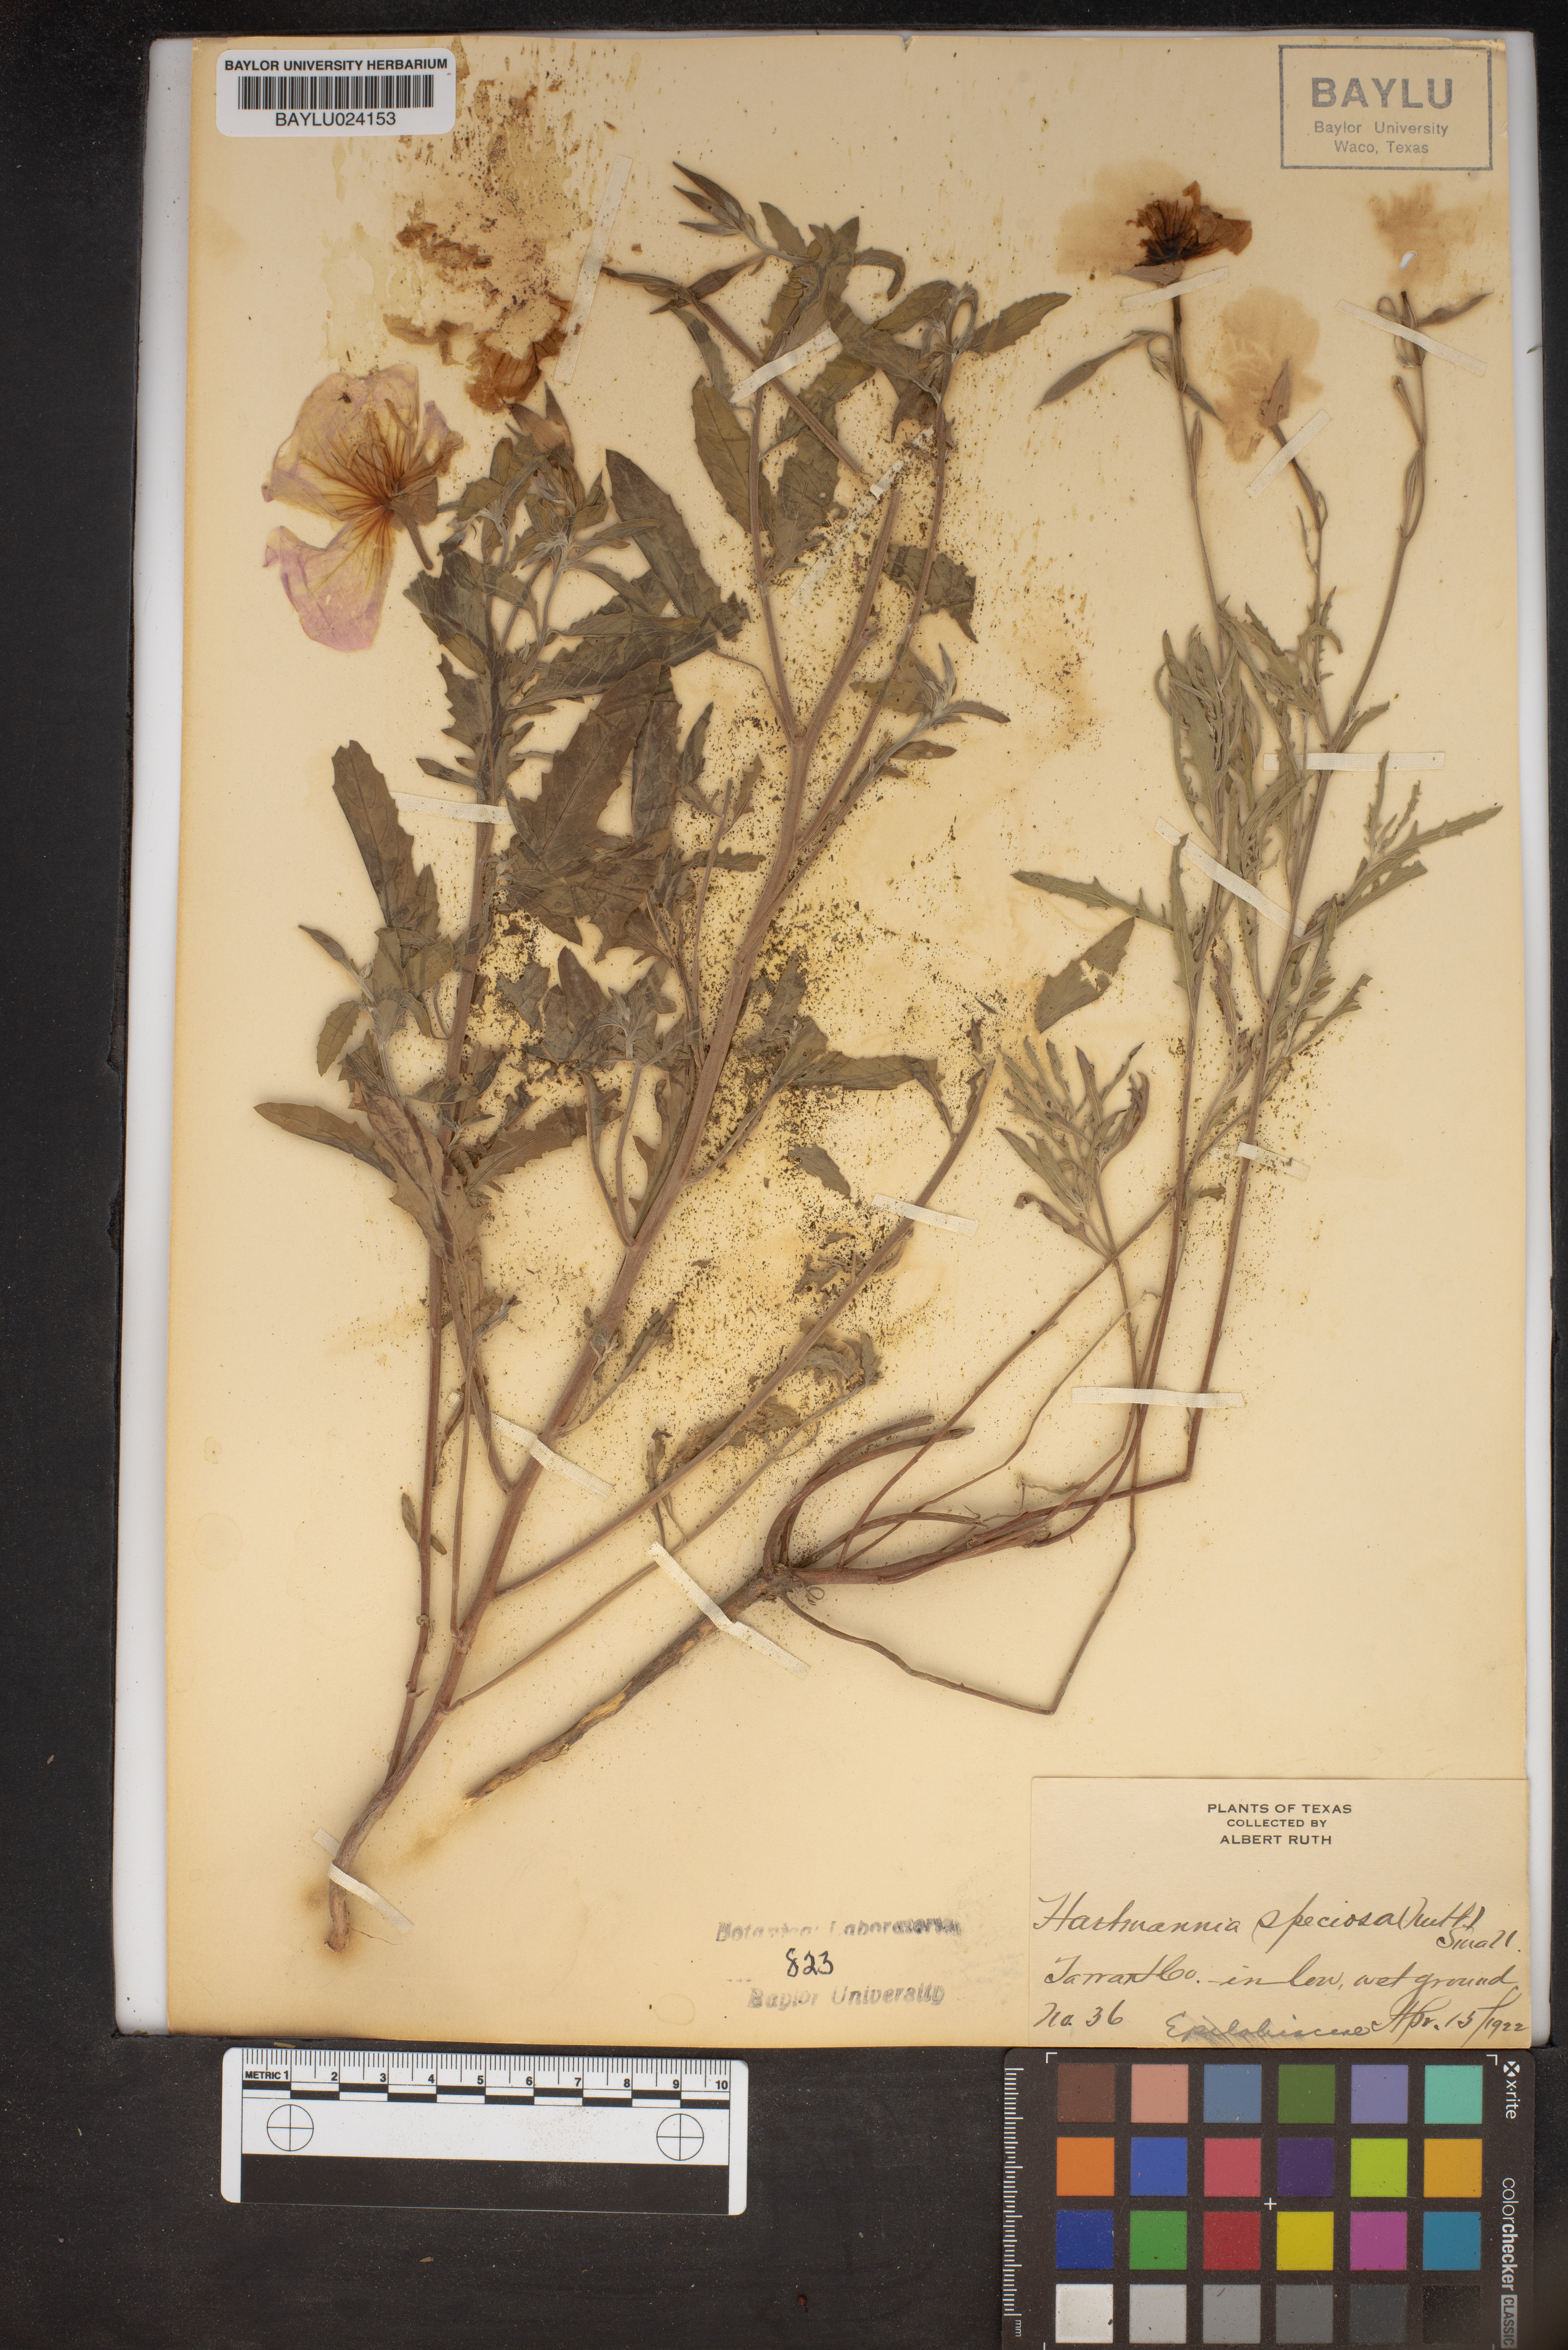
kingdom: Plantae
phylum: Tracheophyta
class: Magnoliopsida
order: Myrtales
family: Onagraceae
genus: Oenothera
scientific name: Oenothera speciosa
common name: White evening-primrose
